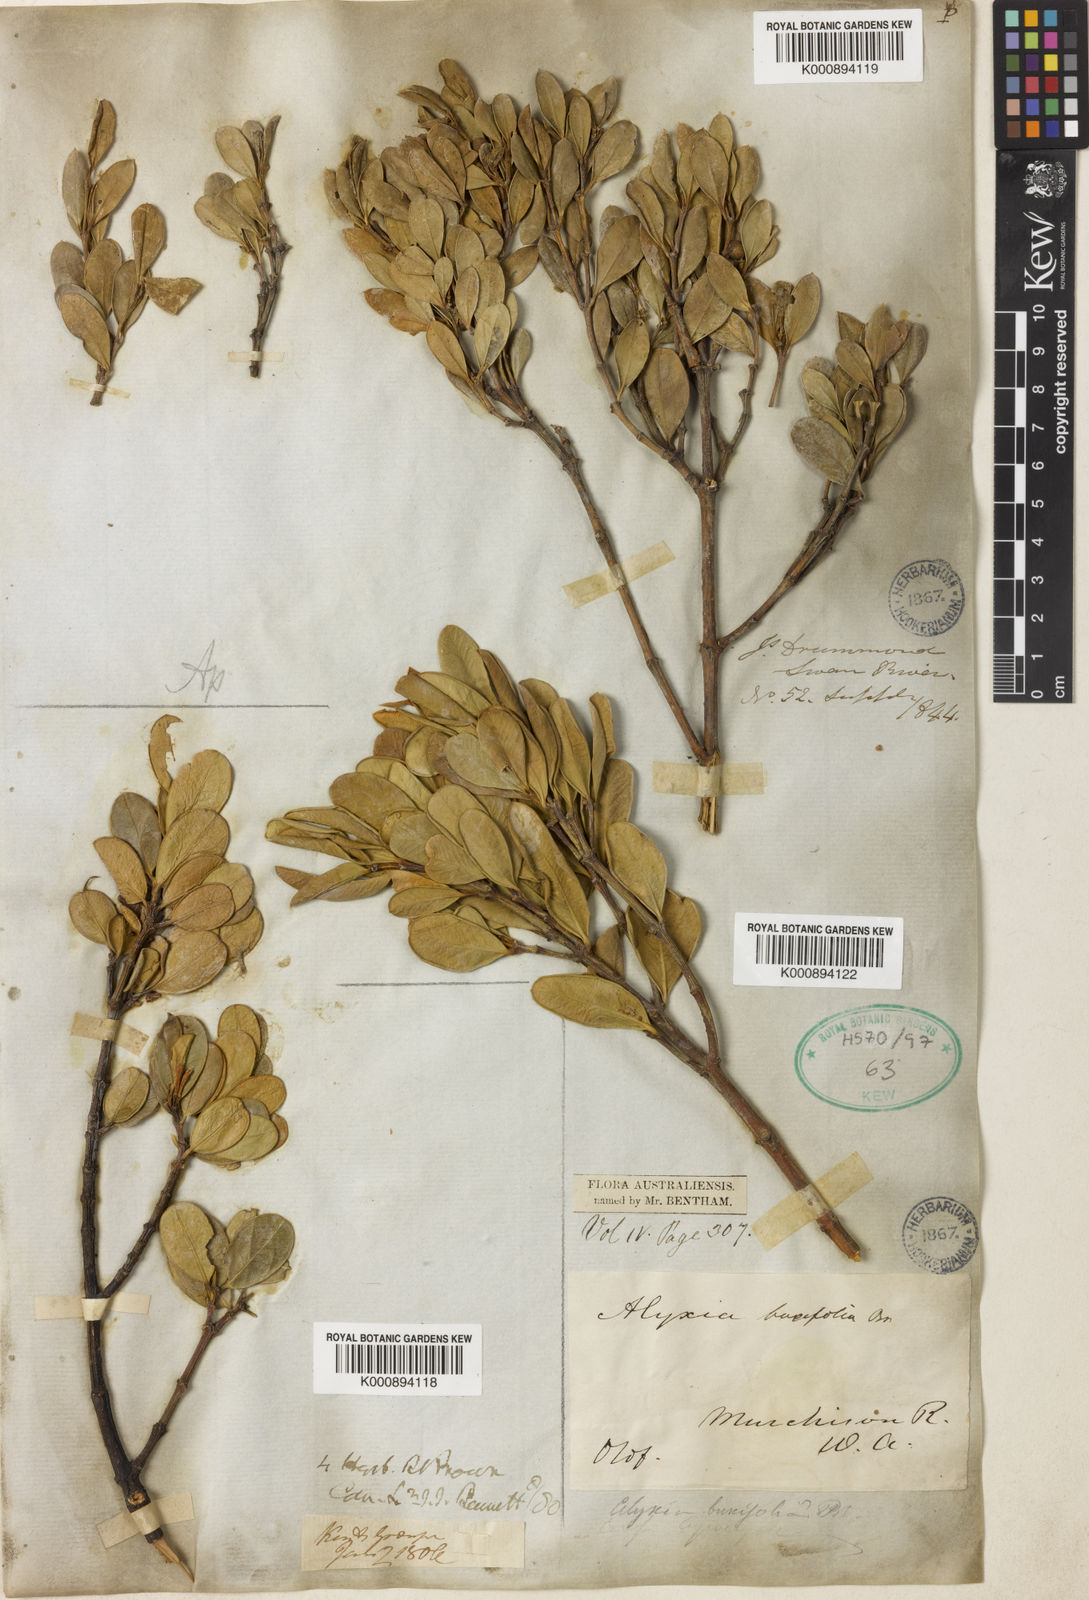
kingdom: Plantae
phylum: Tracheophyta
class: Magnoliopsida
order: Gentianales
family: Apocynaceae
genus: Alyxia
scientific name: Alyxia buxifolia
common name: Dysentery-bush
